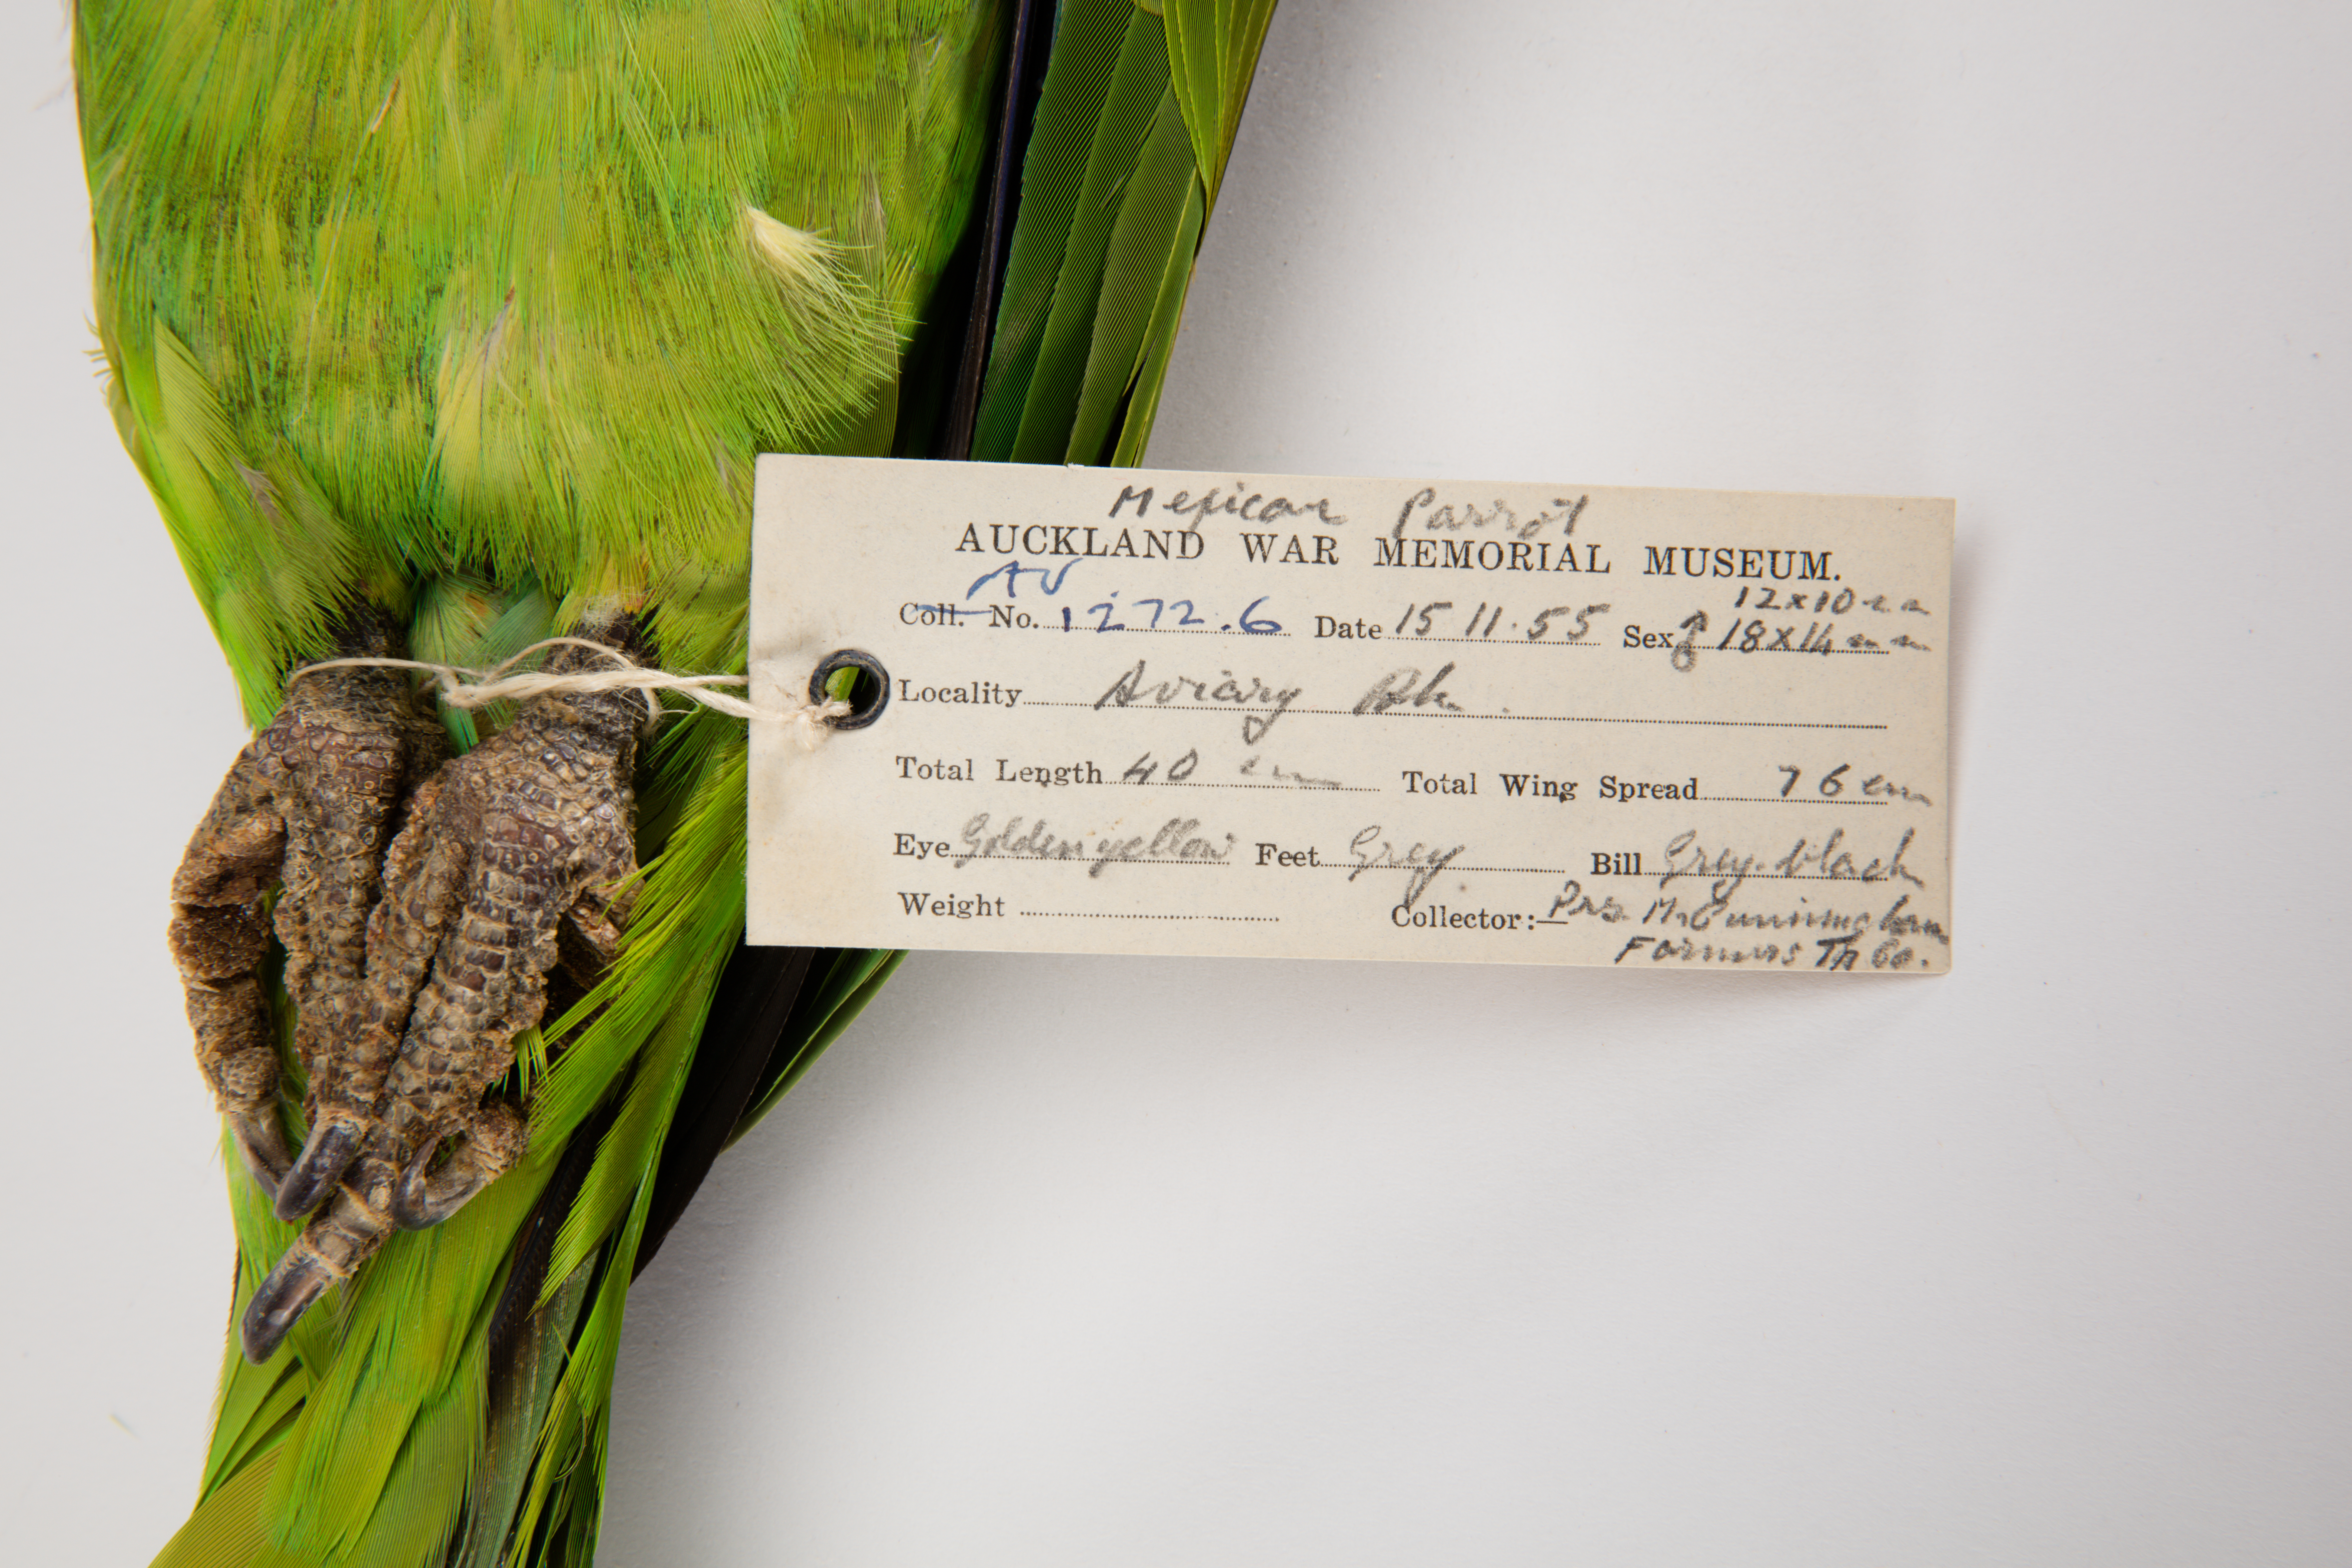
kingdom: Animalia
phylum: Chordata
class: Aves
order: Psittaciformes
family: Psittacidae
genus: Amazona
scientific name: Amazona auropalliata
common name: Yellow-naped amazon
